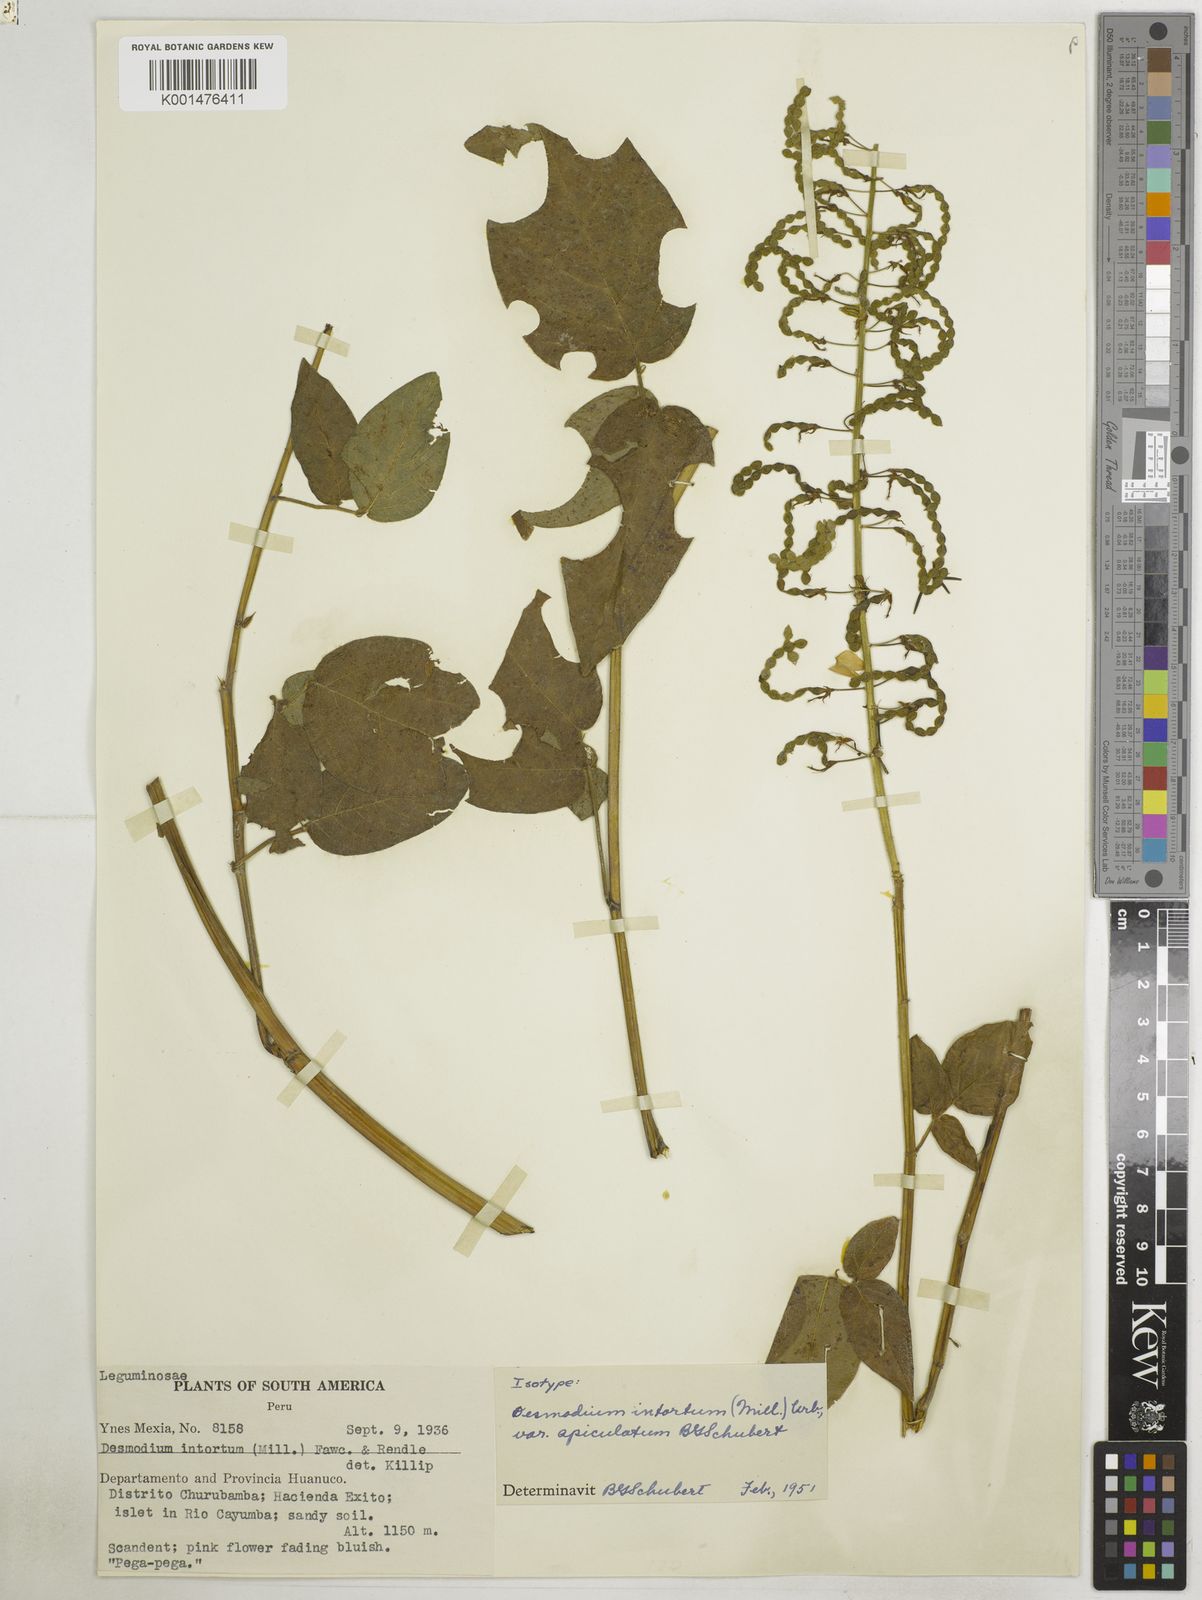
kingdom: Plantae
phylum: Tracheophyta
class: Magnoliopsida
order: Fabales
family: Fabaceae
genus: Desmodium
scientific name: Desmodium intortum
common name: Greenleaf ticktrefoil
